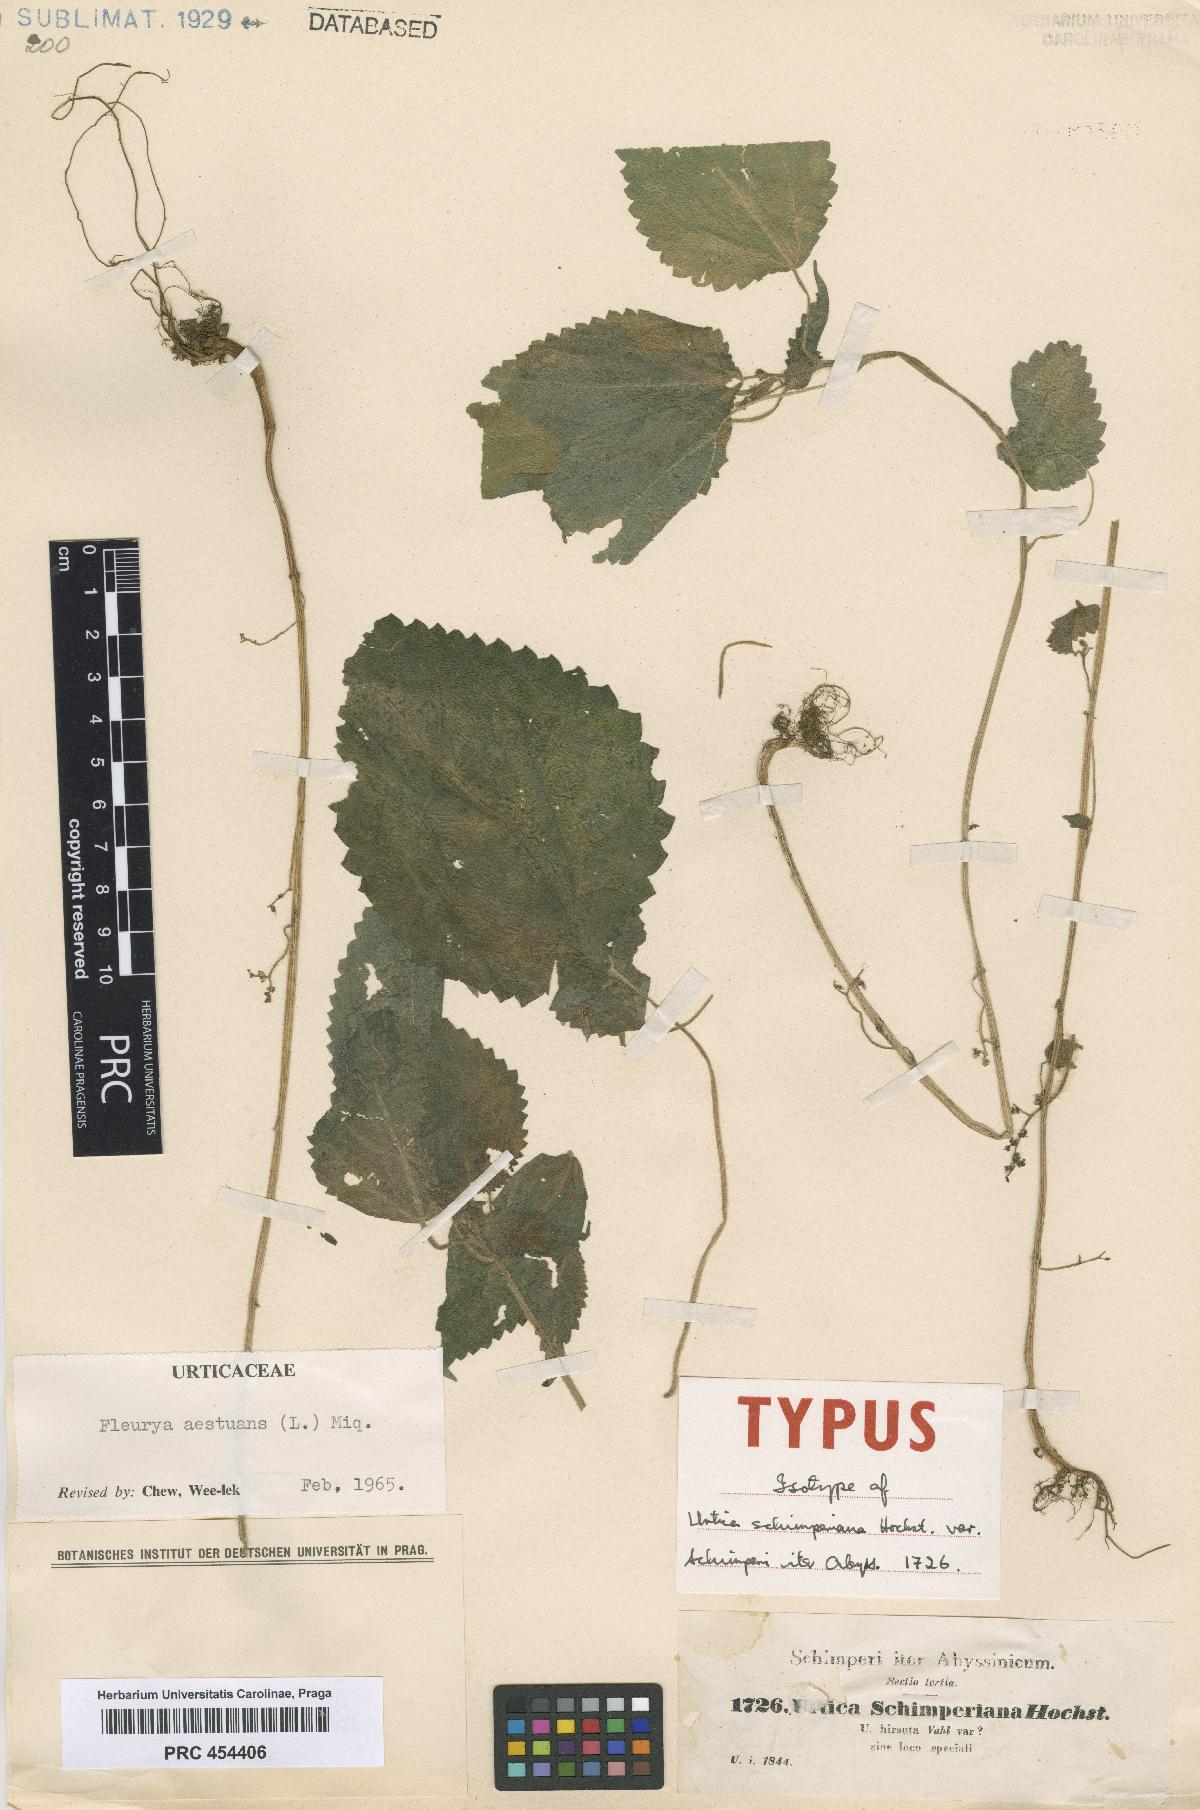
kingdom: Plantae
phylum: Tracheophyta
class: Magnoliopsida
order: Rosales
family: Urticaceae
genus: Laportea
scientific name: Laportea aestuans
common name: West indian woodnettle
